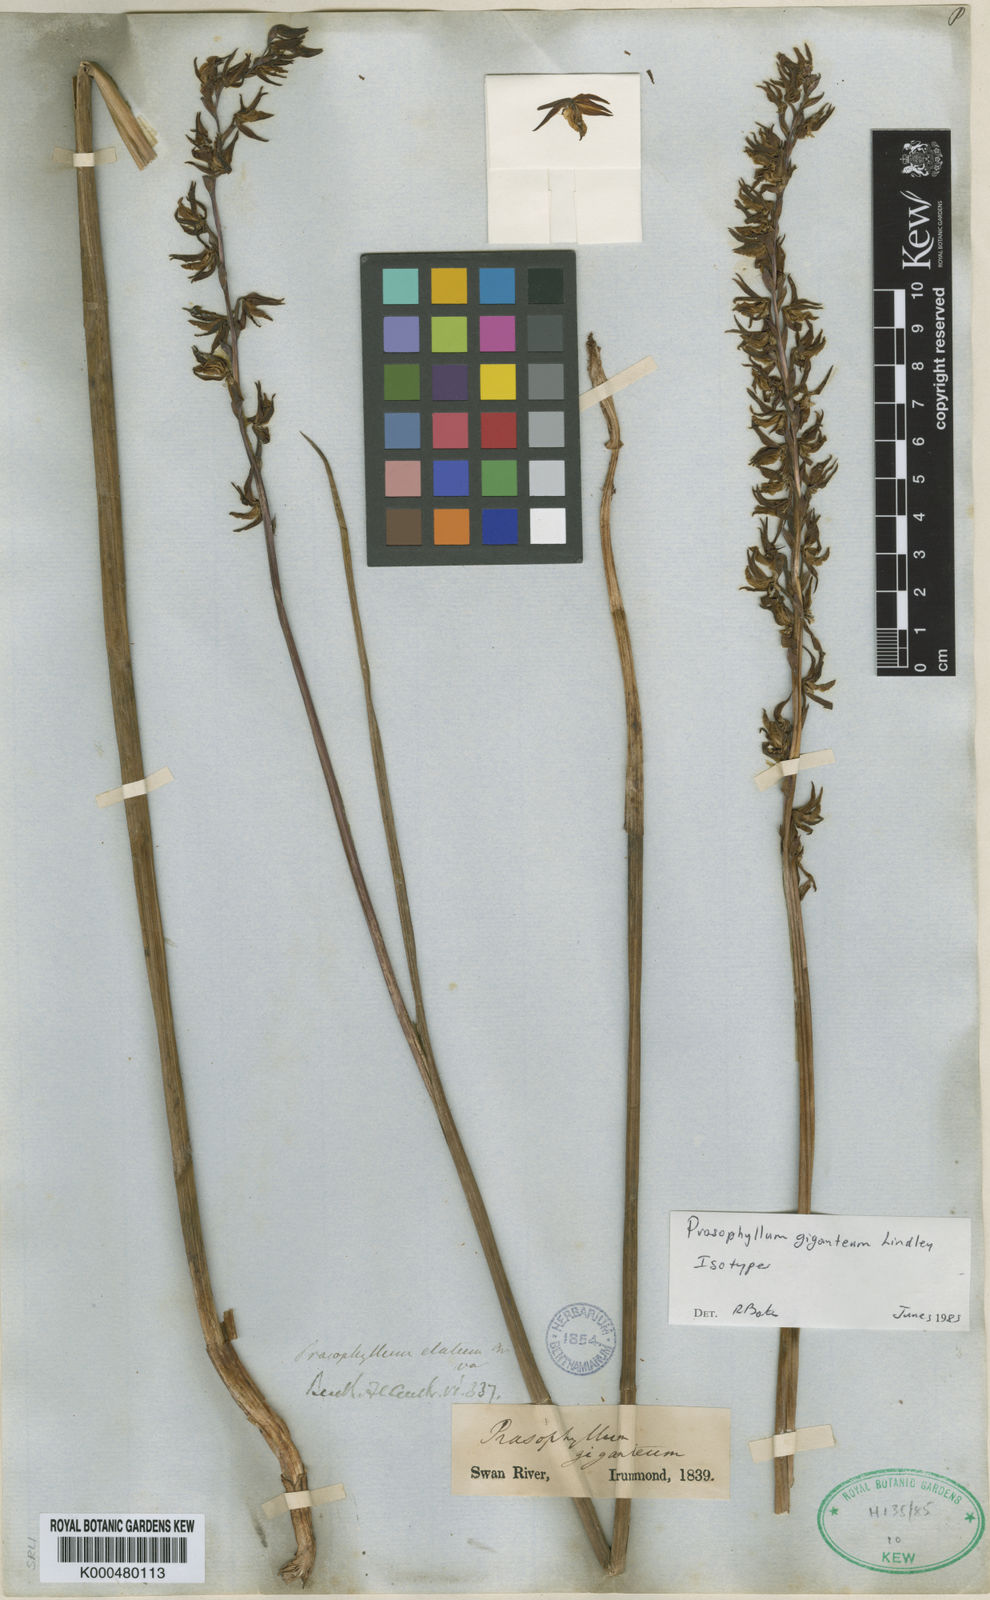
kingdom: Plantae
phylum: Tracheophyta
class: Liliopsida
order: Asparagales
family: Orchidaceae
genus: Prasophyllum
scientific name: Prasophyllum giganteum
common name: Bronze leek orchid
